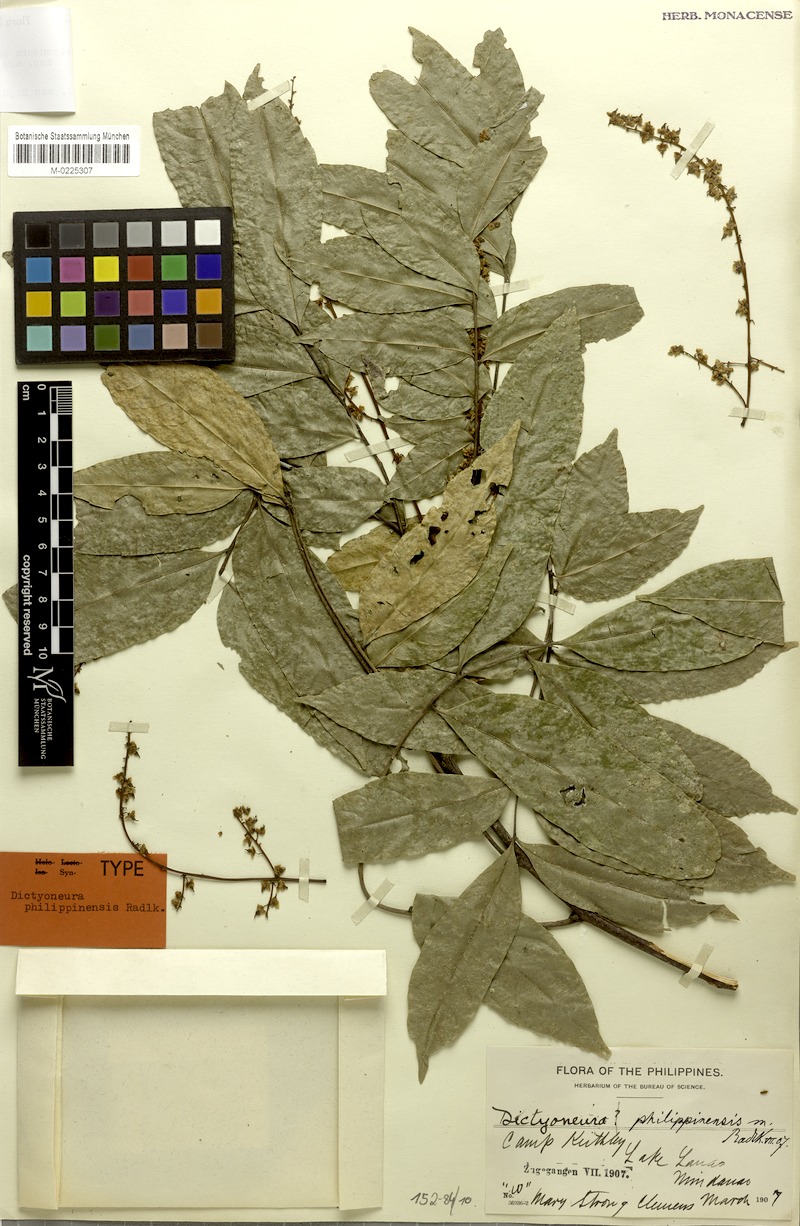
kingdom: Plantae
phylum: Tracheophyta
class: Magnoliopsida
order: Sapindales
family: Sapindaceae
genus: Dictyoneura
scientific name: Dictyoneura acuminata
